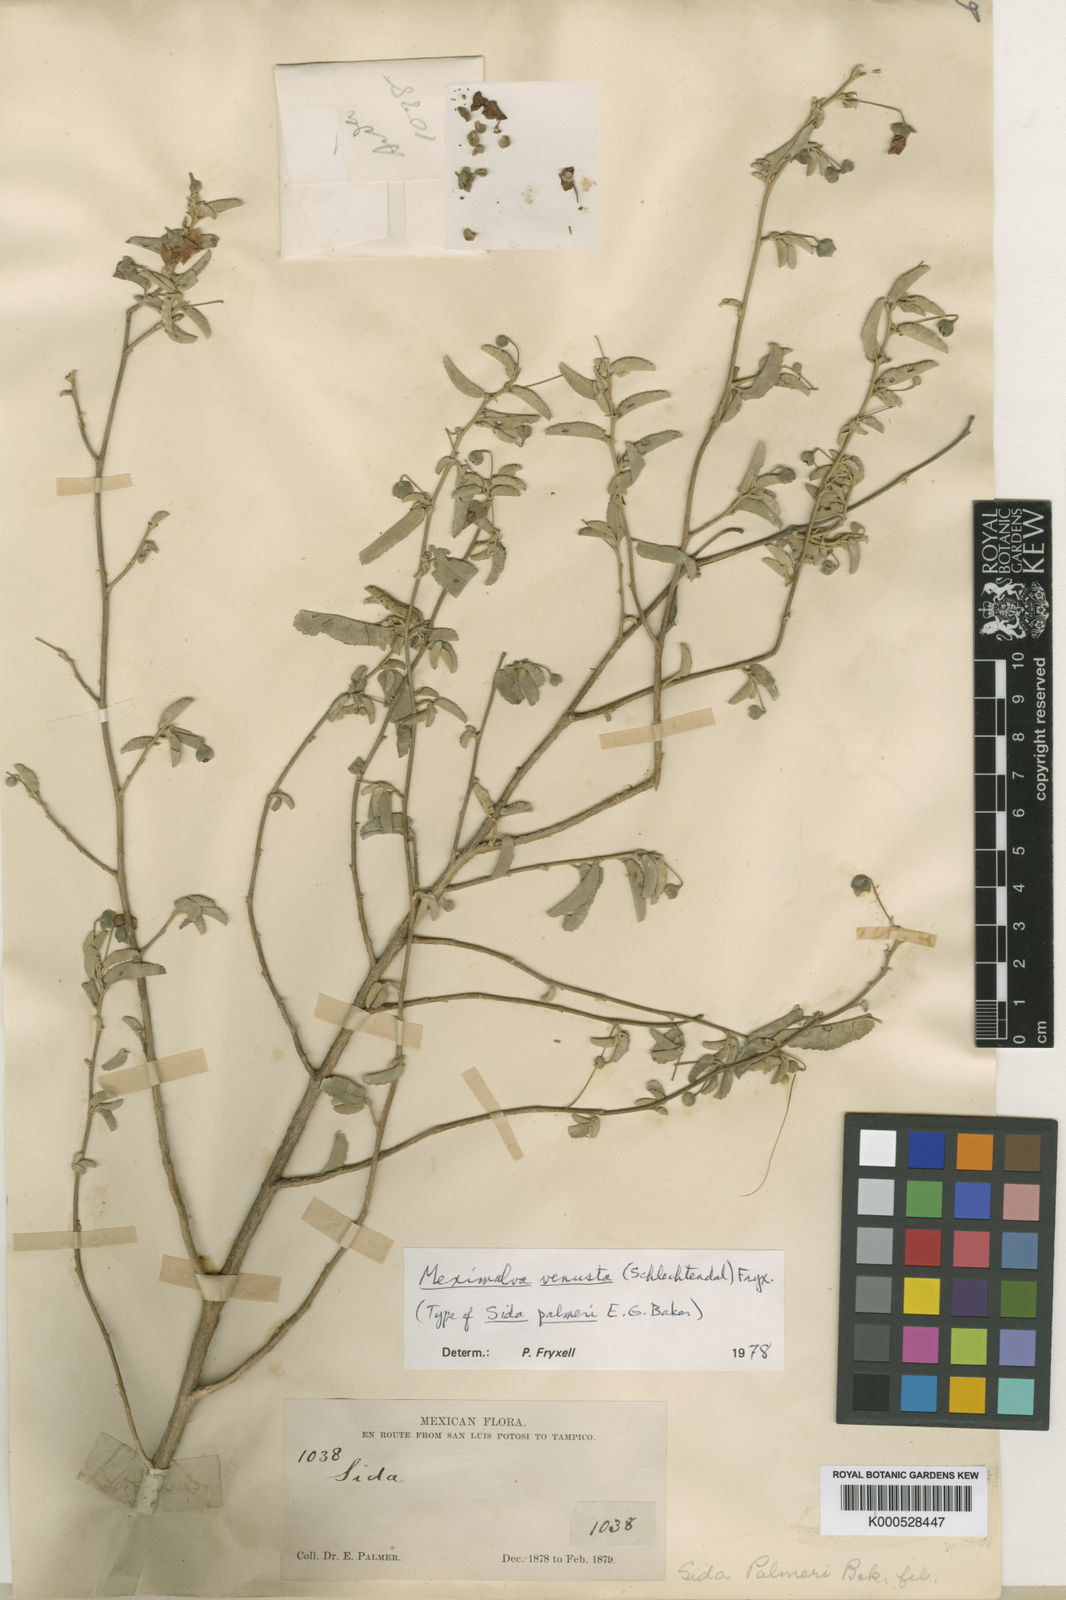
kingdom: Plantae
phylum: Tracheophyta
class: Magnoliopsida
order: Malvales
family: Malvaceae
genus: Meximalva
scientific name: Meximalva venusta
